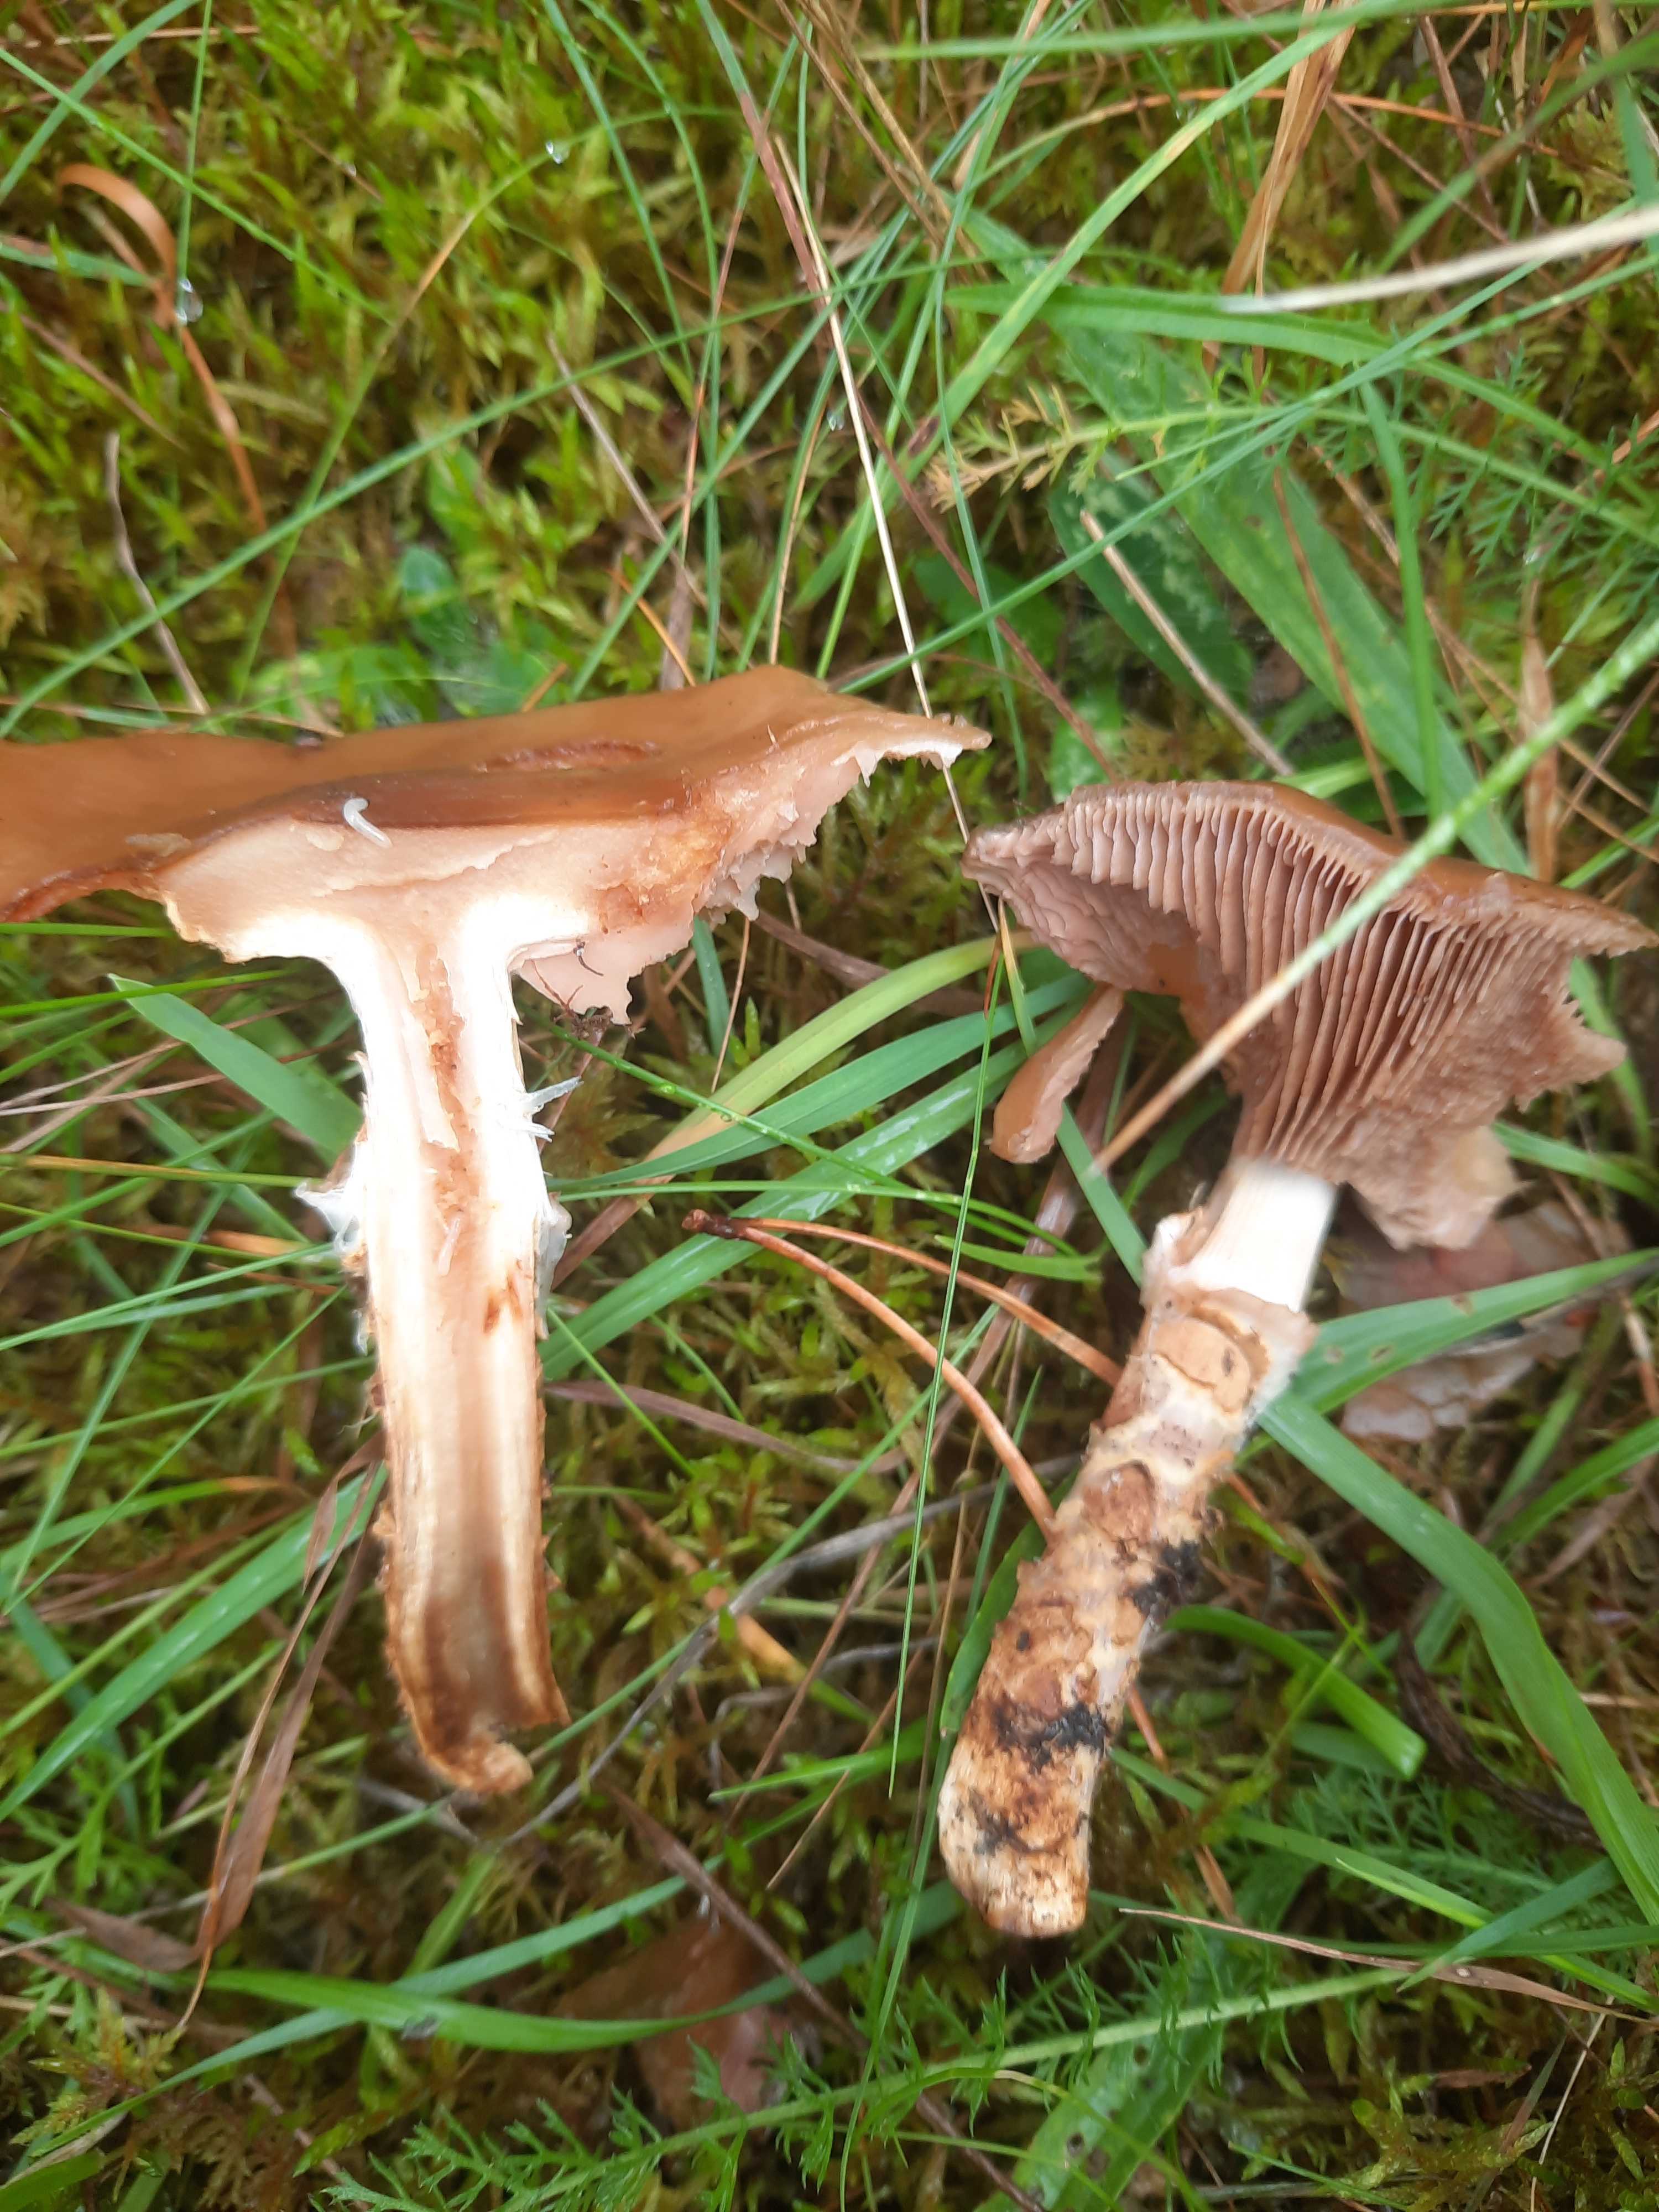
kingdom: Fungi
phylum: Basidiomycota
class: Agaricomycetes
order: Agaricales
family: Cortinariaceae
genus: Cortinarius
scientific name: Cortinarius trivialis
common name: Girdled webcap
